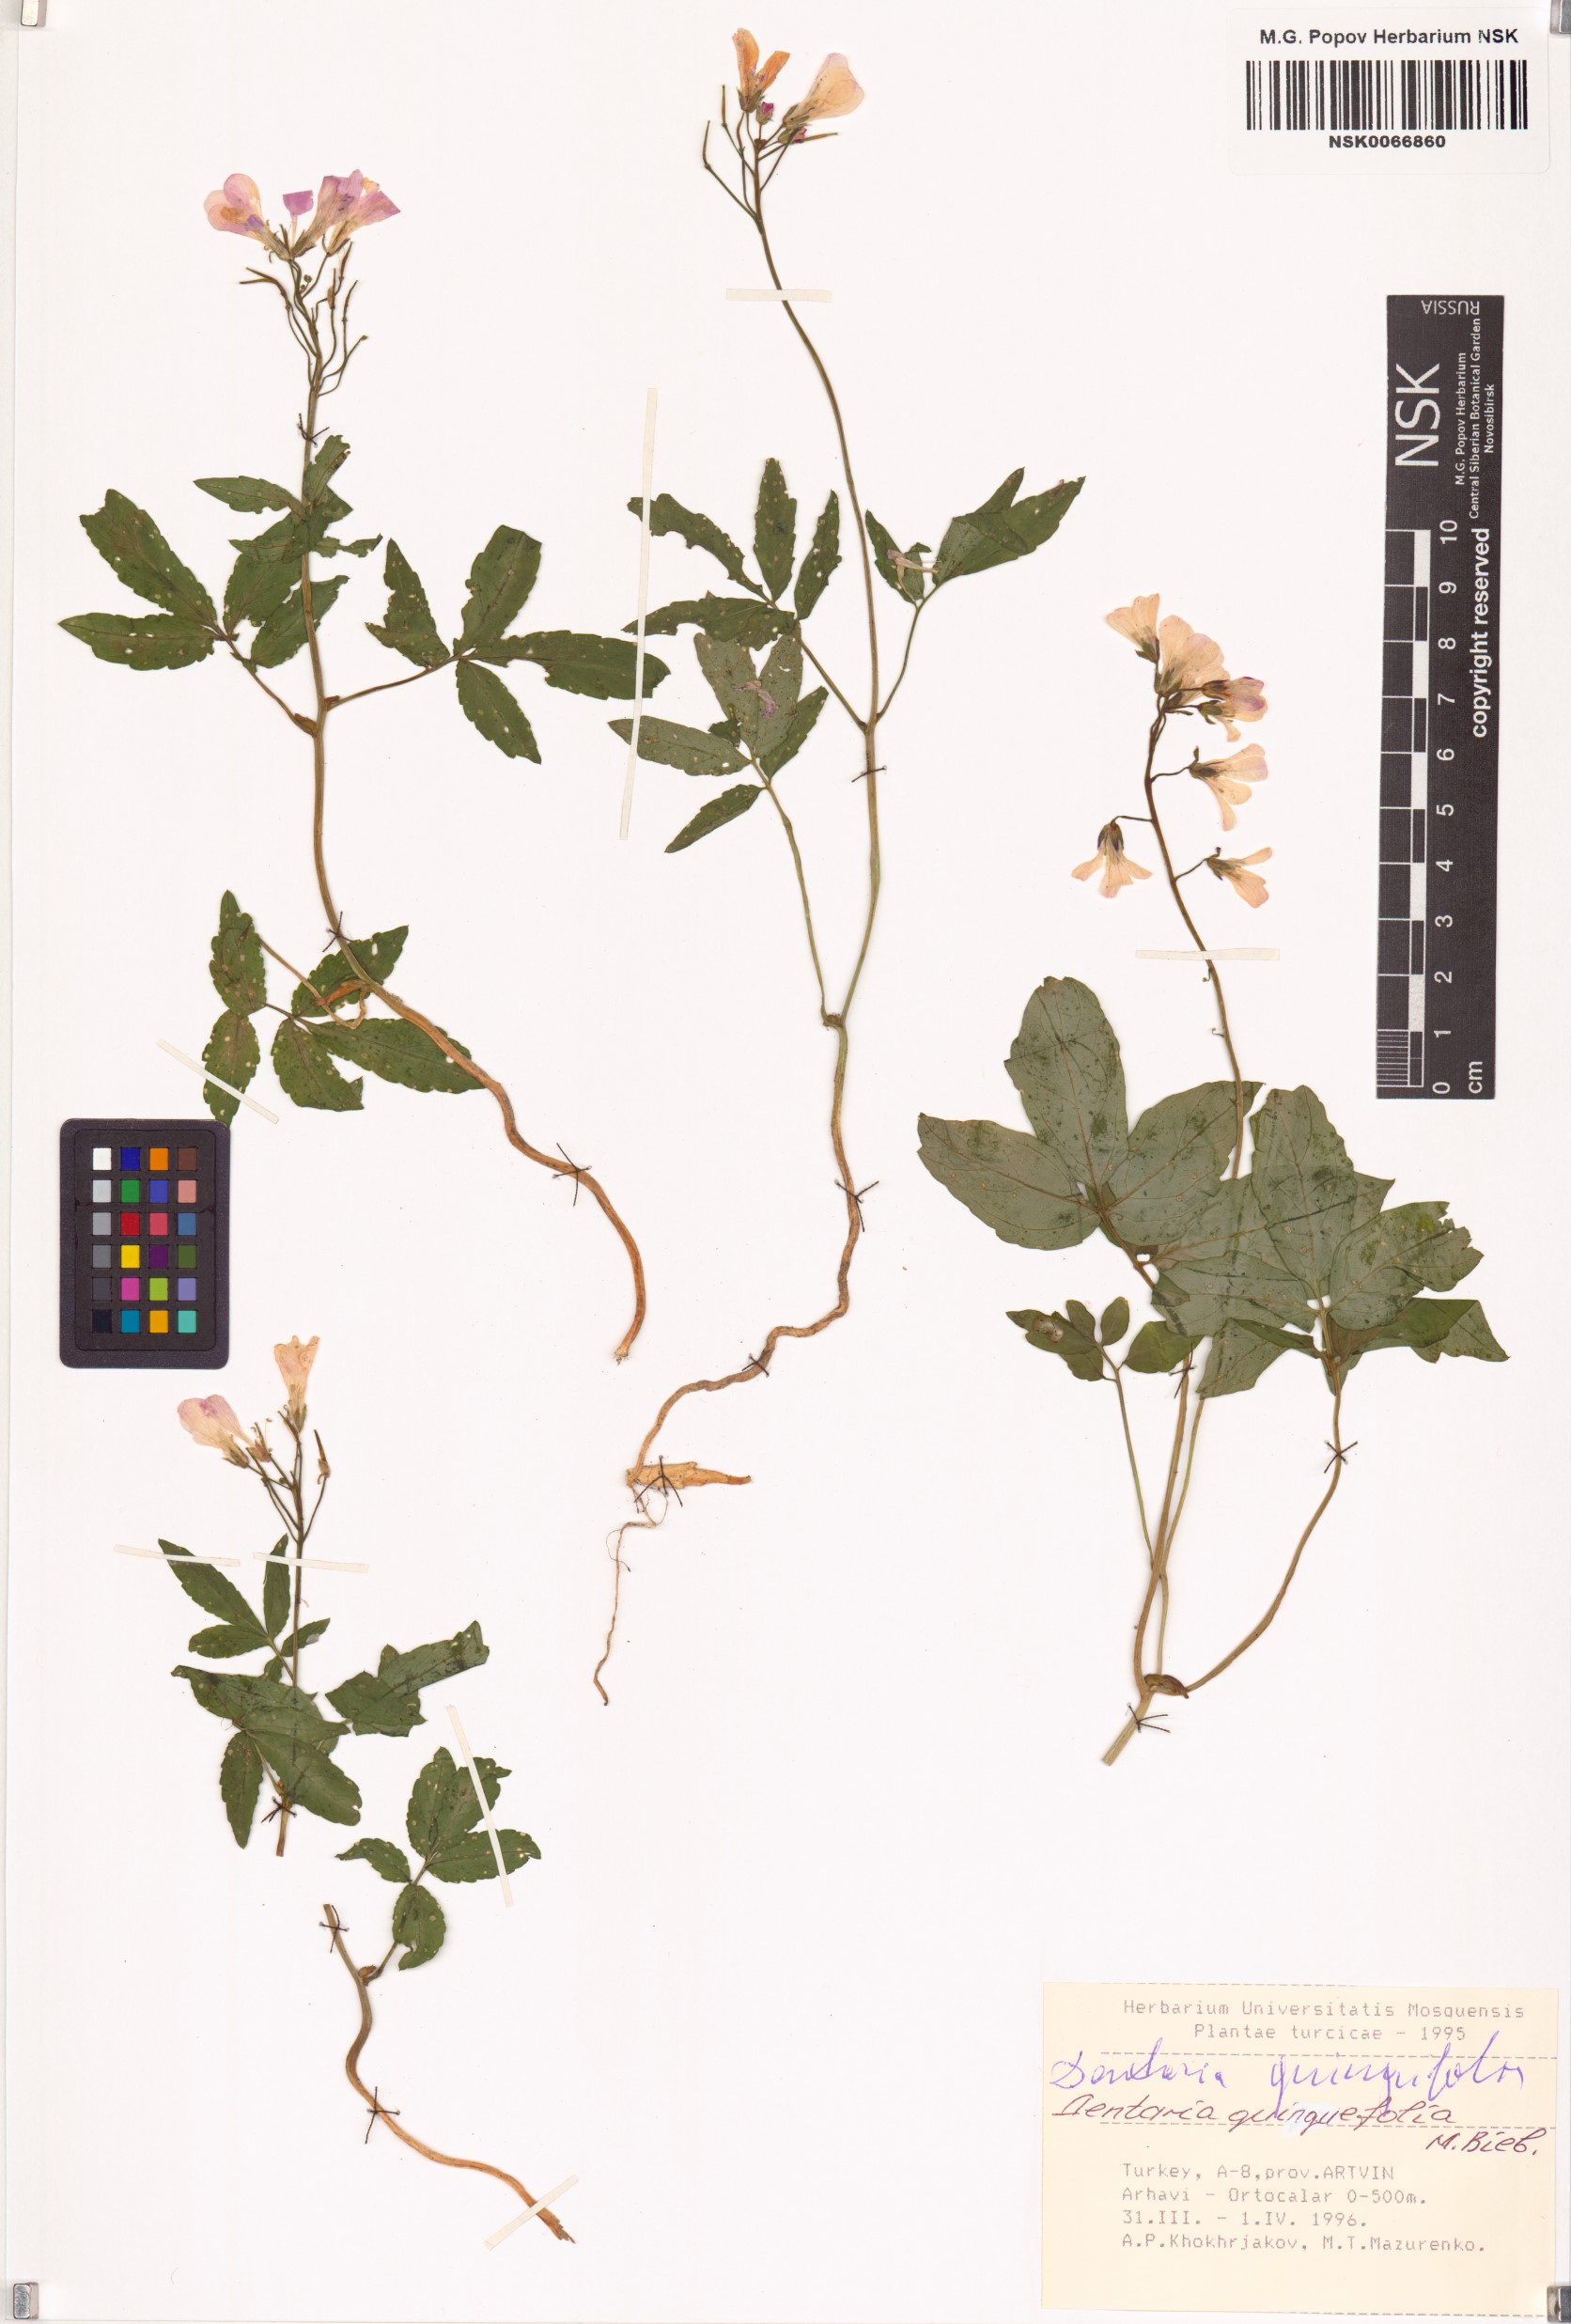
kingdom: Plantae
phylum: Tracheophyta
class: Magnoliopsida
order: Brassicales
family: Brassicaceae
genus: Cardamine
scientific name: Cardamine quinquefolia
